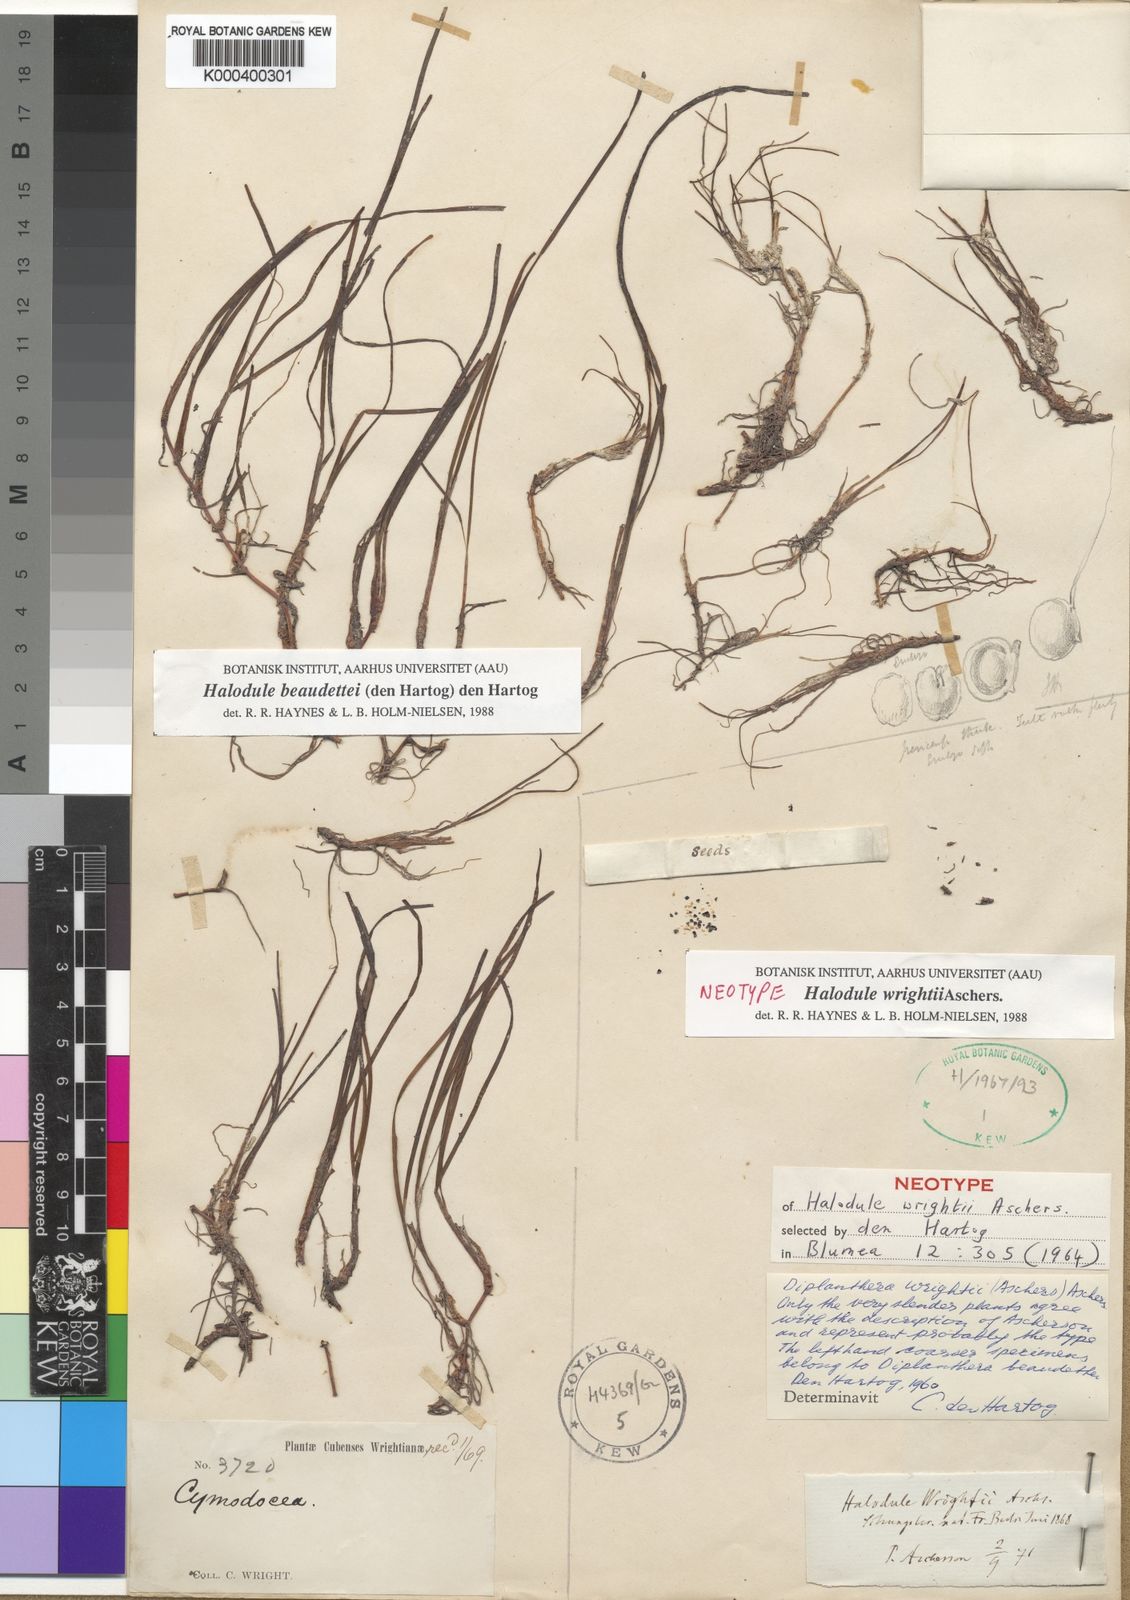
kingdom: Plantae
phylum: Tracheophyta
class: Liliopsida
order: Alismatales
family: Cymodoceaceae
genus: Halodule
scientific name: Halodule wrightii
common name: Shoalgrass
